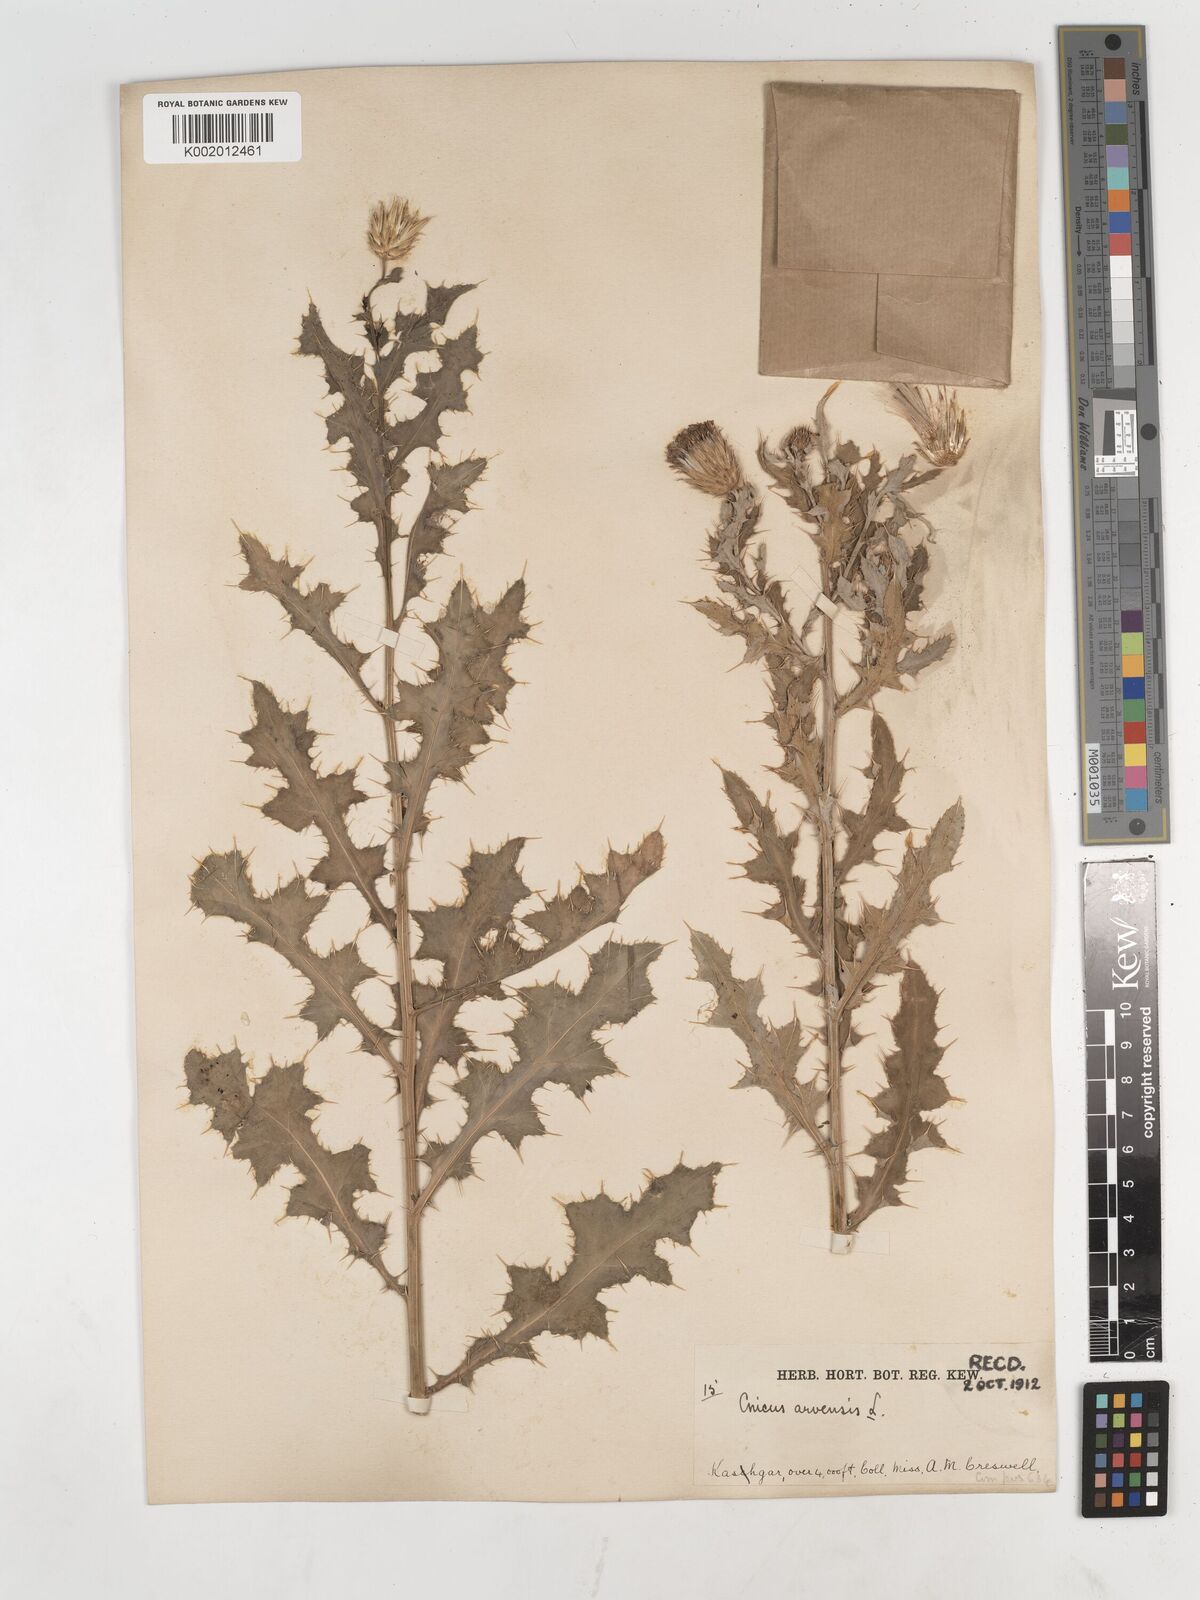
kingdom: Plantae
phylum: Tracheophyta
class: Magnoliopsida
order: Asterales
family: Asteraceae
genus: Cirsium
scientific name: Cirsium arvense
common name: Creeping thistle
